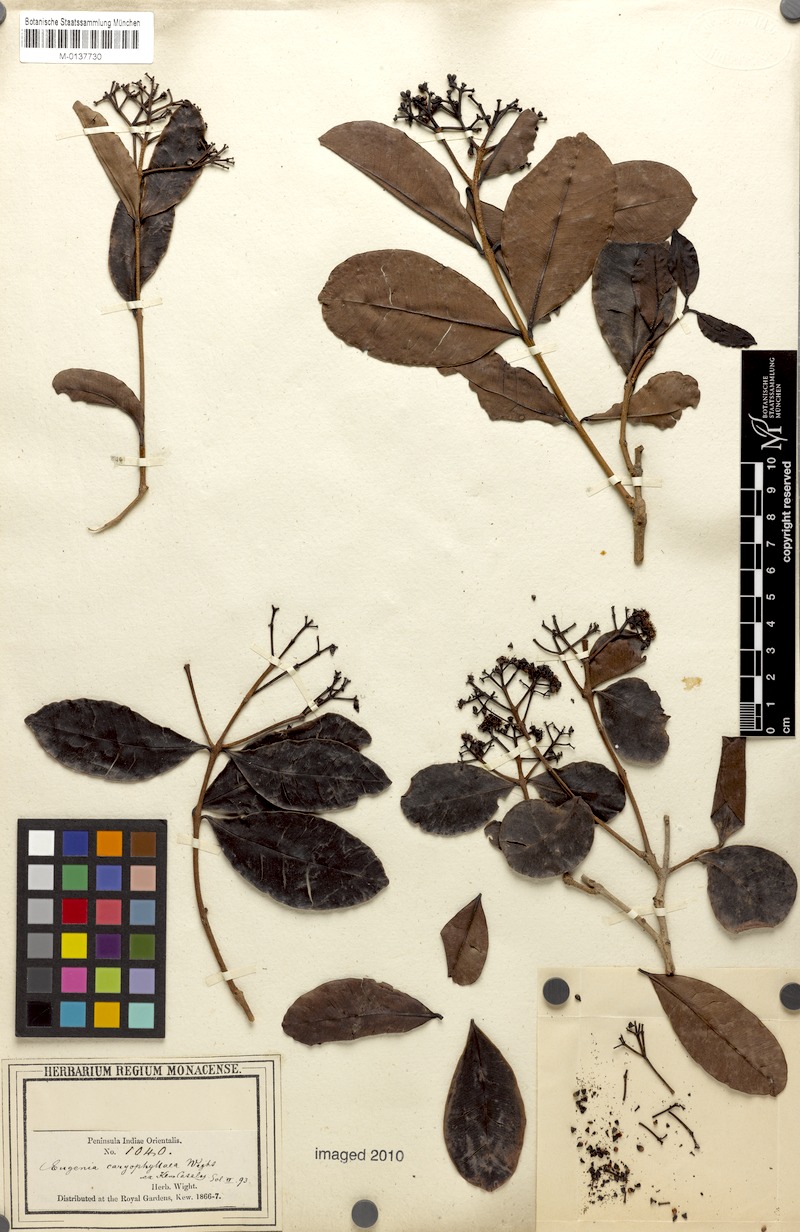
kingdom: Plantae
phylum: Tracheophyta
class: Magnoliopsida
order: Myrtales
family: Myrtaceae
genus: Syzygium
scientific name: Syzygium caryophyllatum
